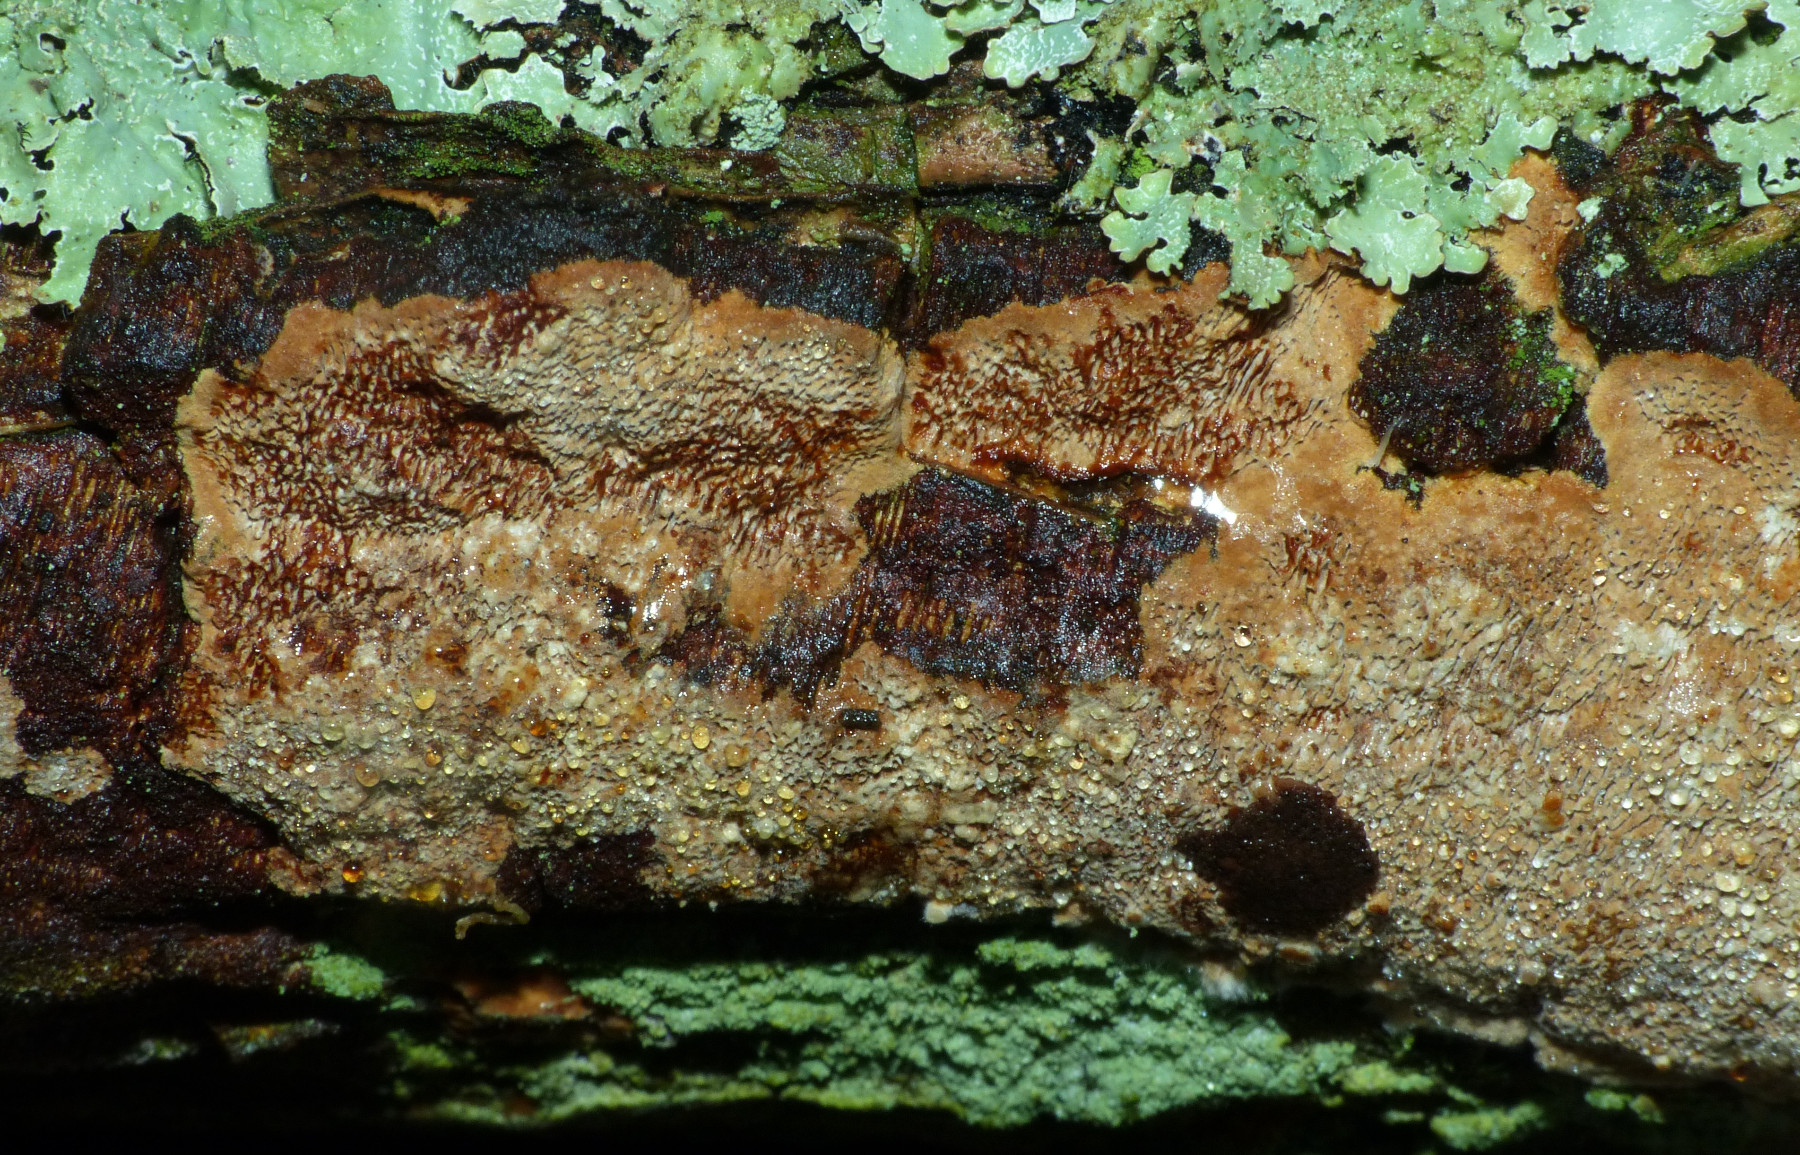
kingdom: Fungi
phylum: Basidiomycota
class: Agaricomycetes
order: Hymenochaetales
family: Hymenochaetaceae
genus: Fuscoporia
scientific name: Fuscoporia
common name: Ildporesvamp
